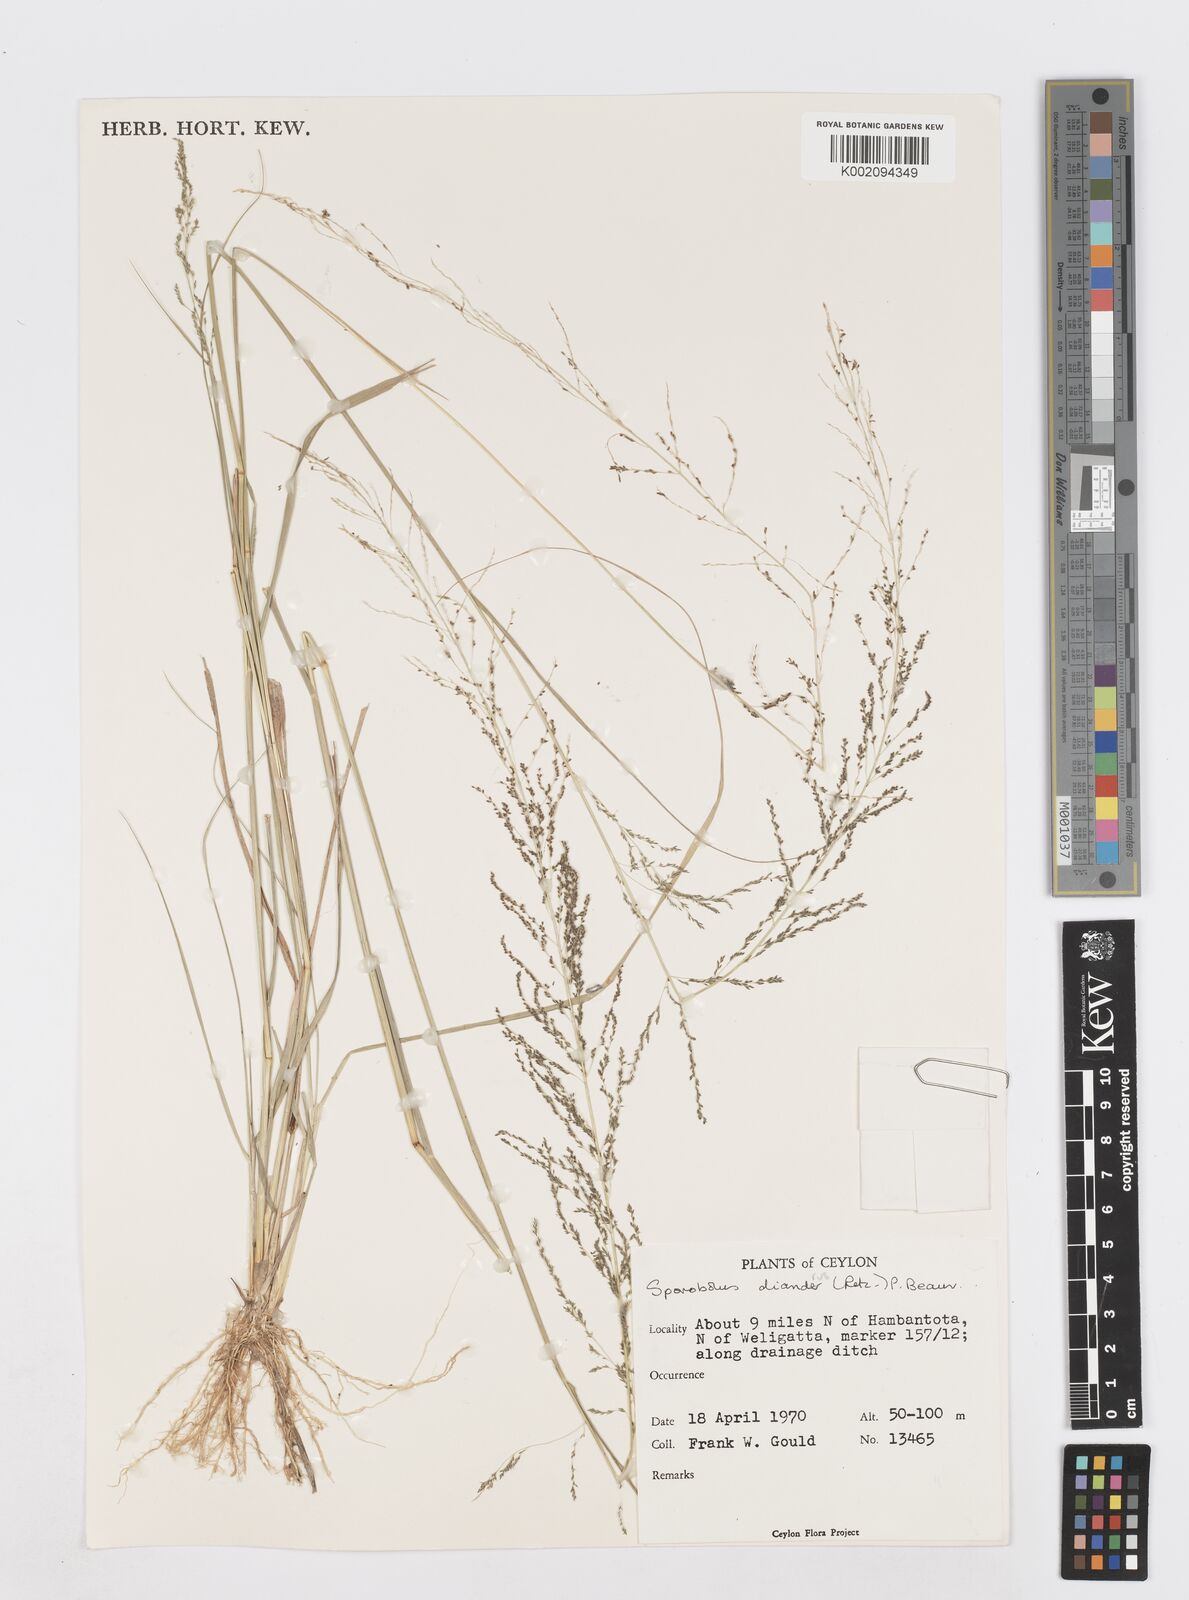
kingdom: Plantae
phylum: Tracheophyta
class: Liliopsida
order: Poales
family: Poaceae
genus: Sporobolus
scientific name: Sporobolus diandrus
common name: Tussock dropseed
